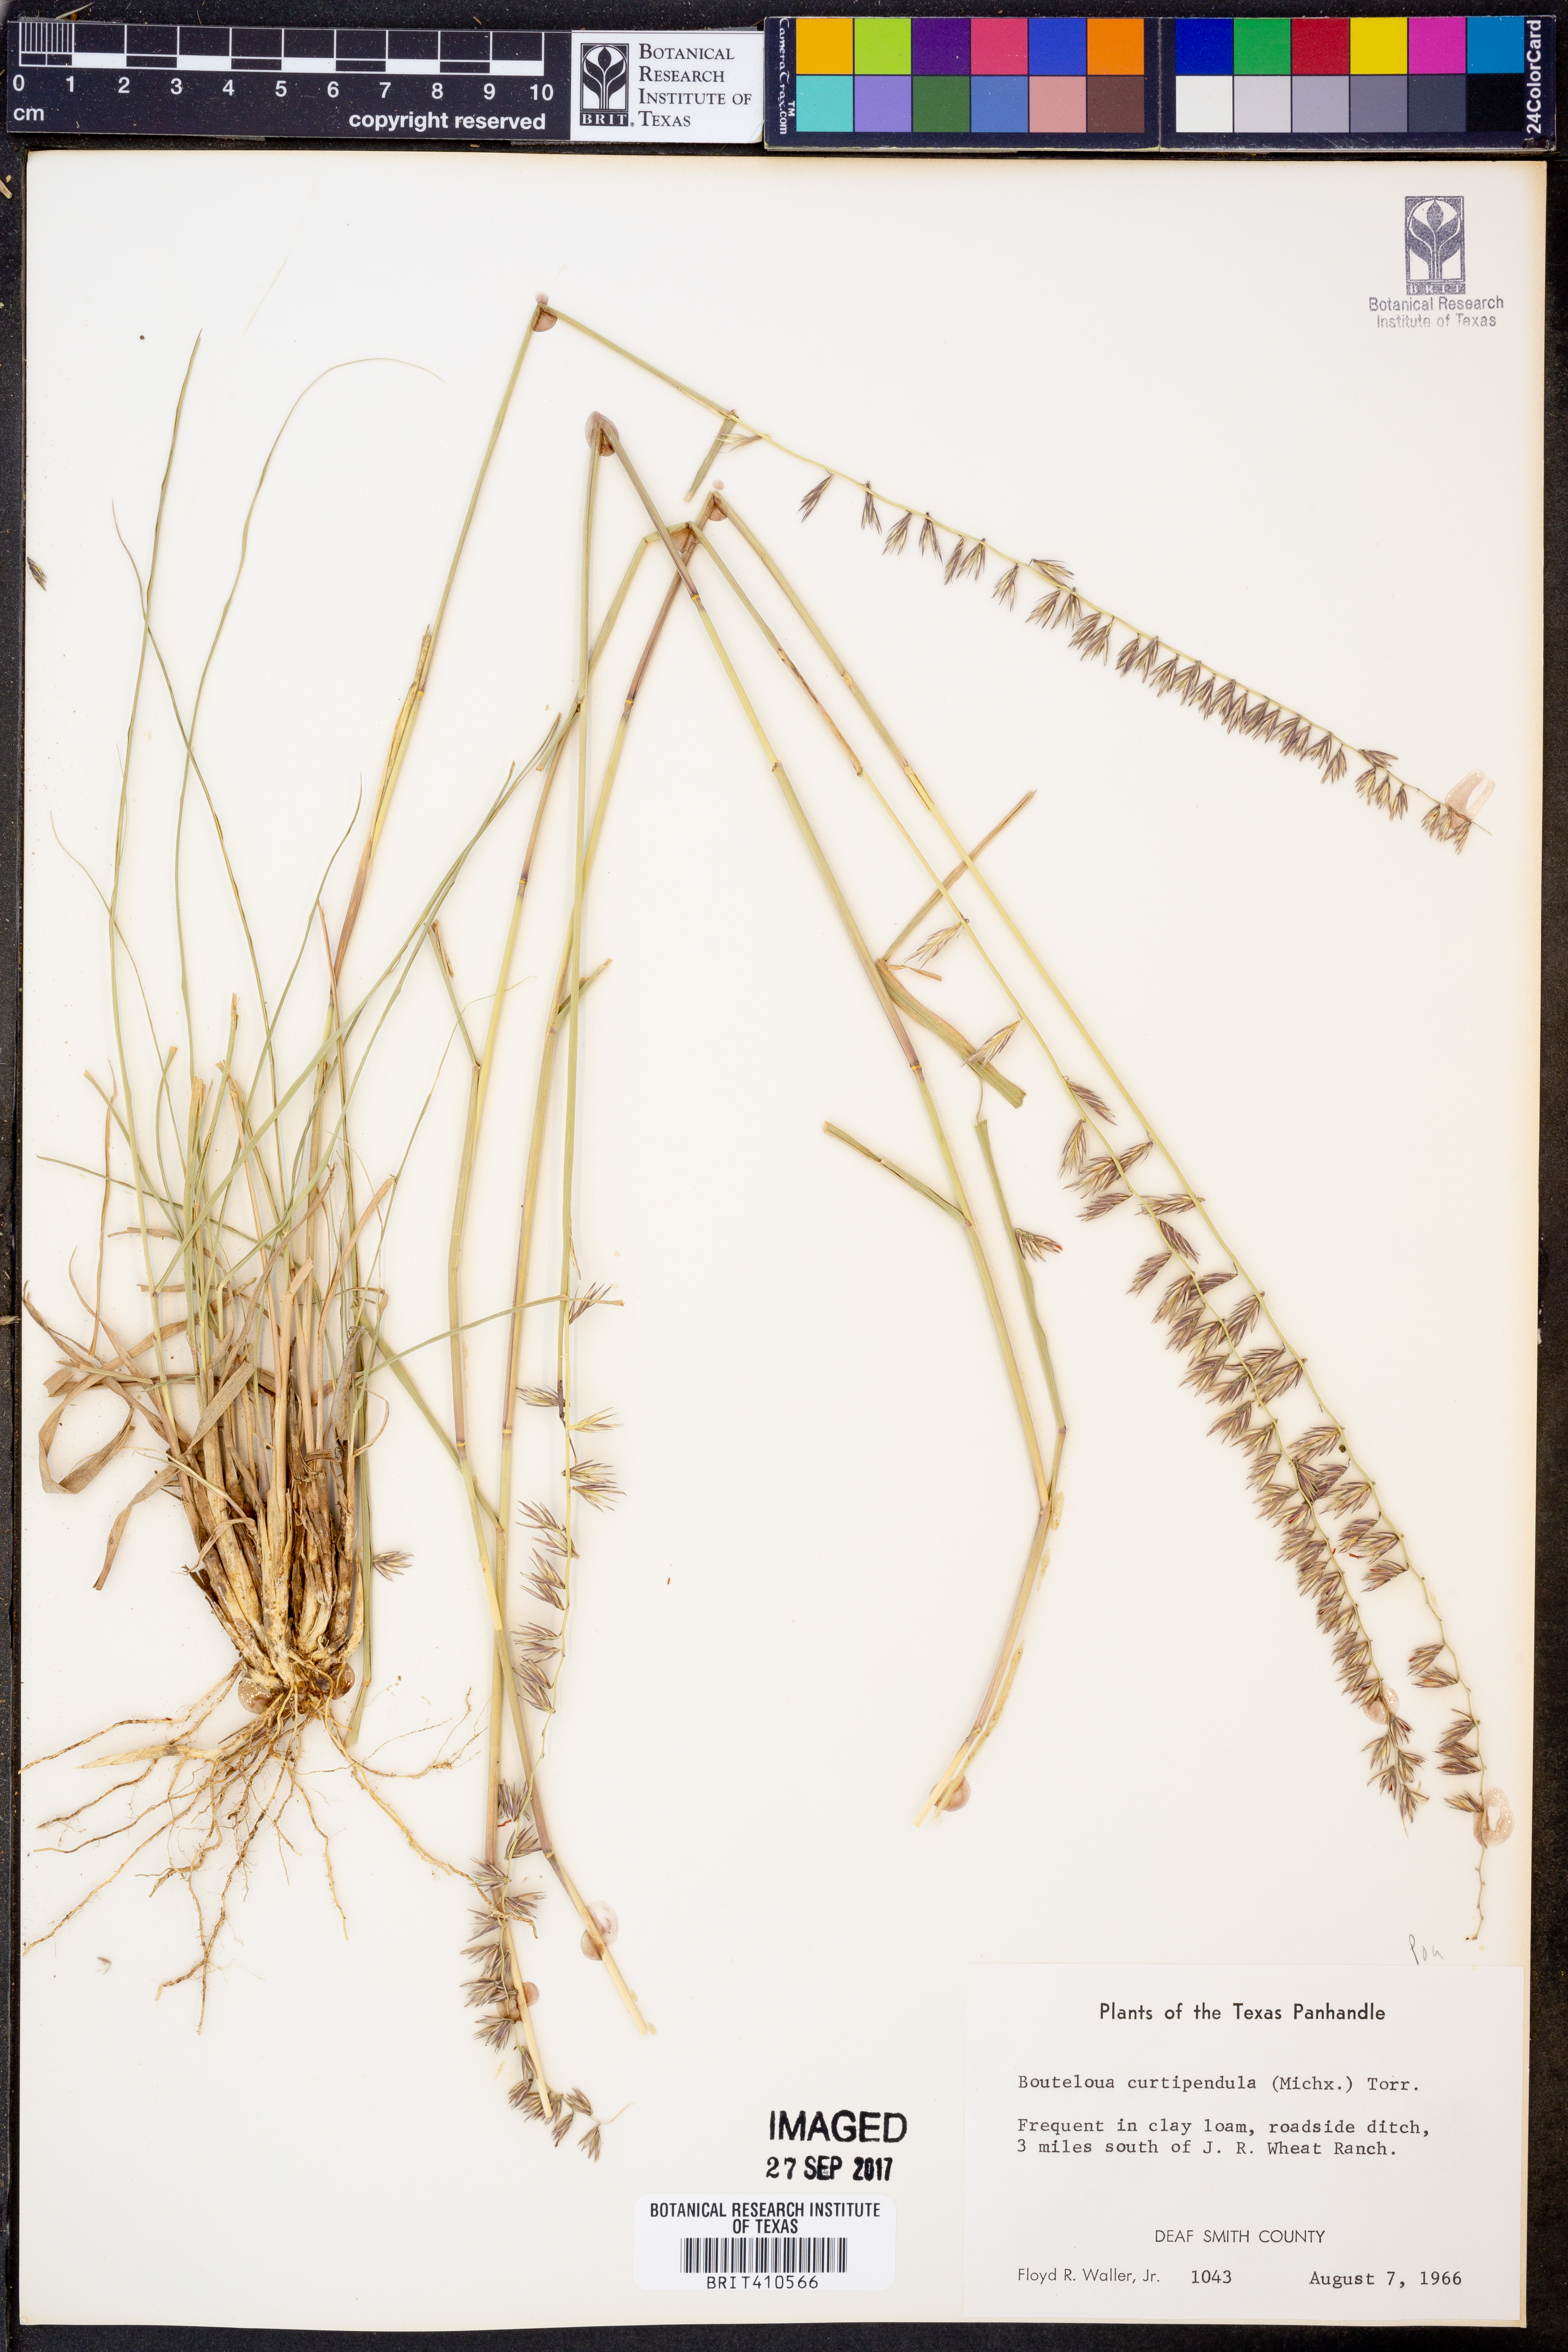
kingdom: Plantae
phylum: Tracheophyta
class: Liliopsida
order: Poales
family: Poaceae
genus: Bouteloua
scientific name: Bouteloua curtipendula
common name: Side-oats grama
